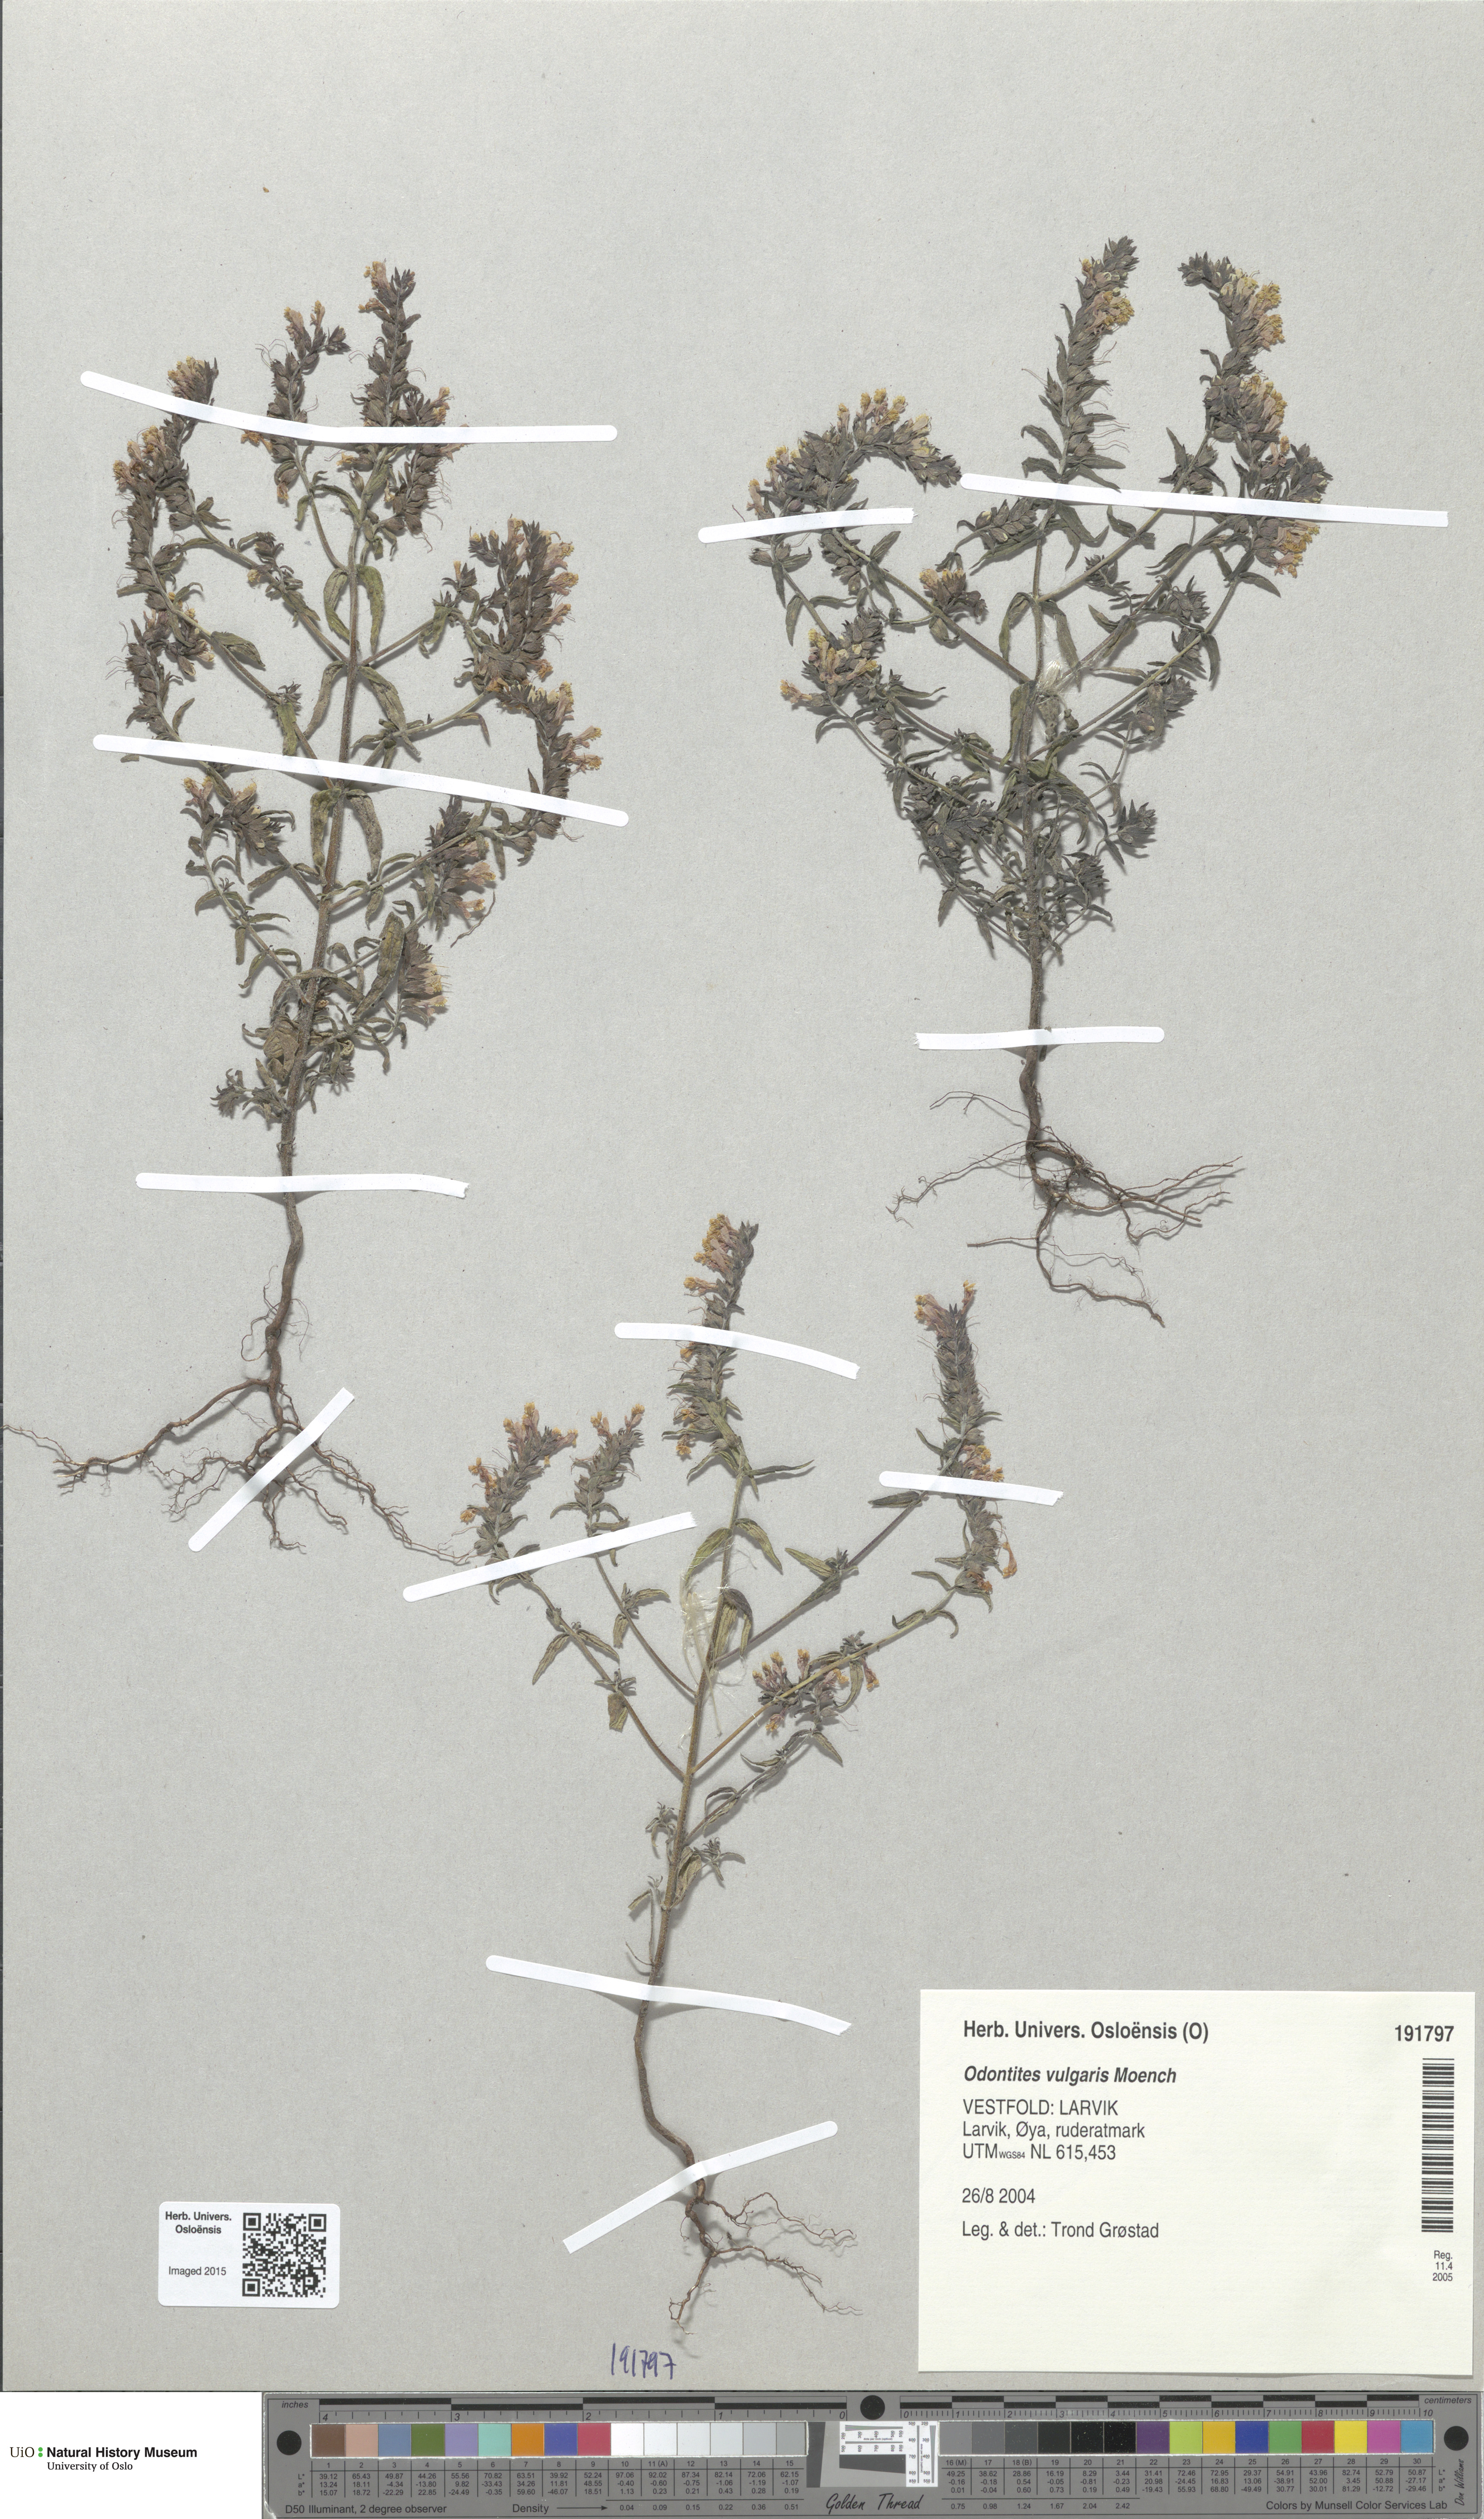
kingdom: Plantae
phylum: Tracheophyta
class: Magnoliopsida
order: Lamiales
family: Orobanchaceae
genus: Odontites
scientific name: Odontites vulgaris
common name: Broomrape
